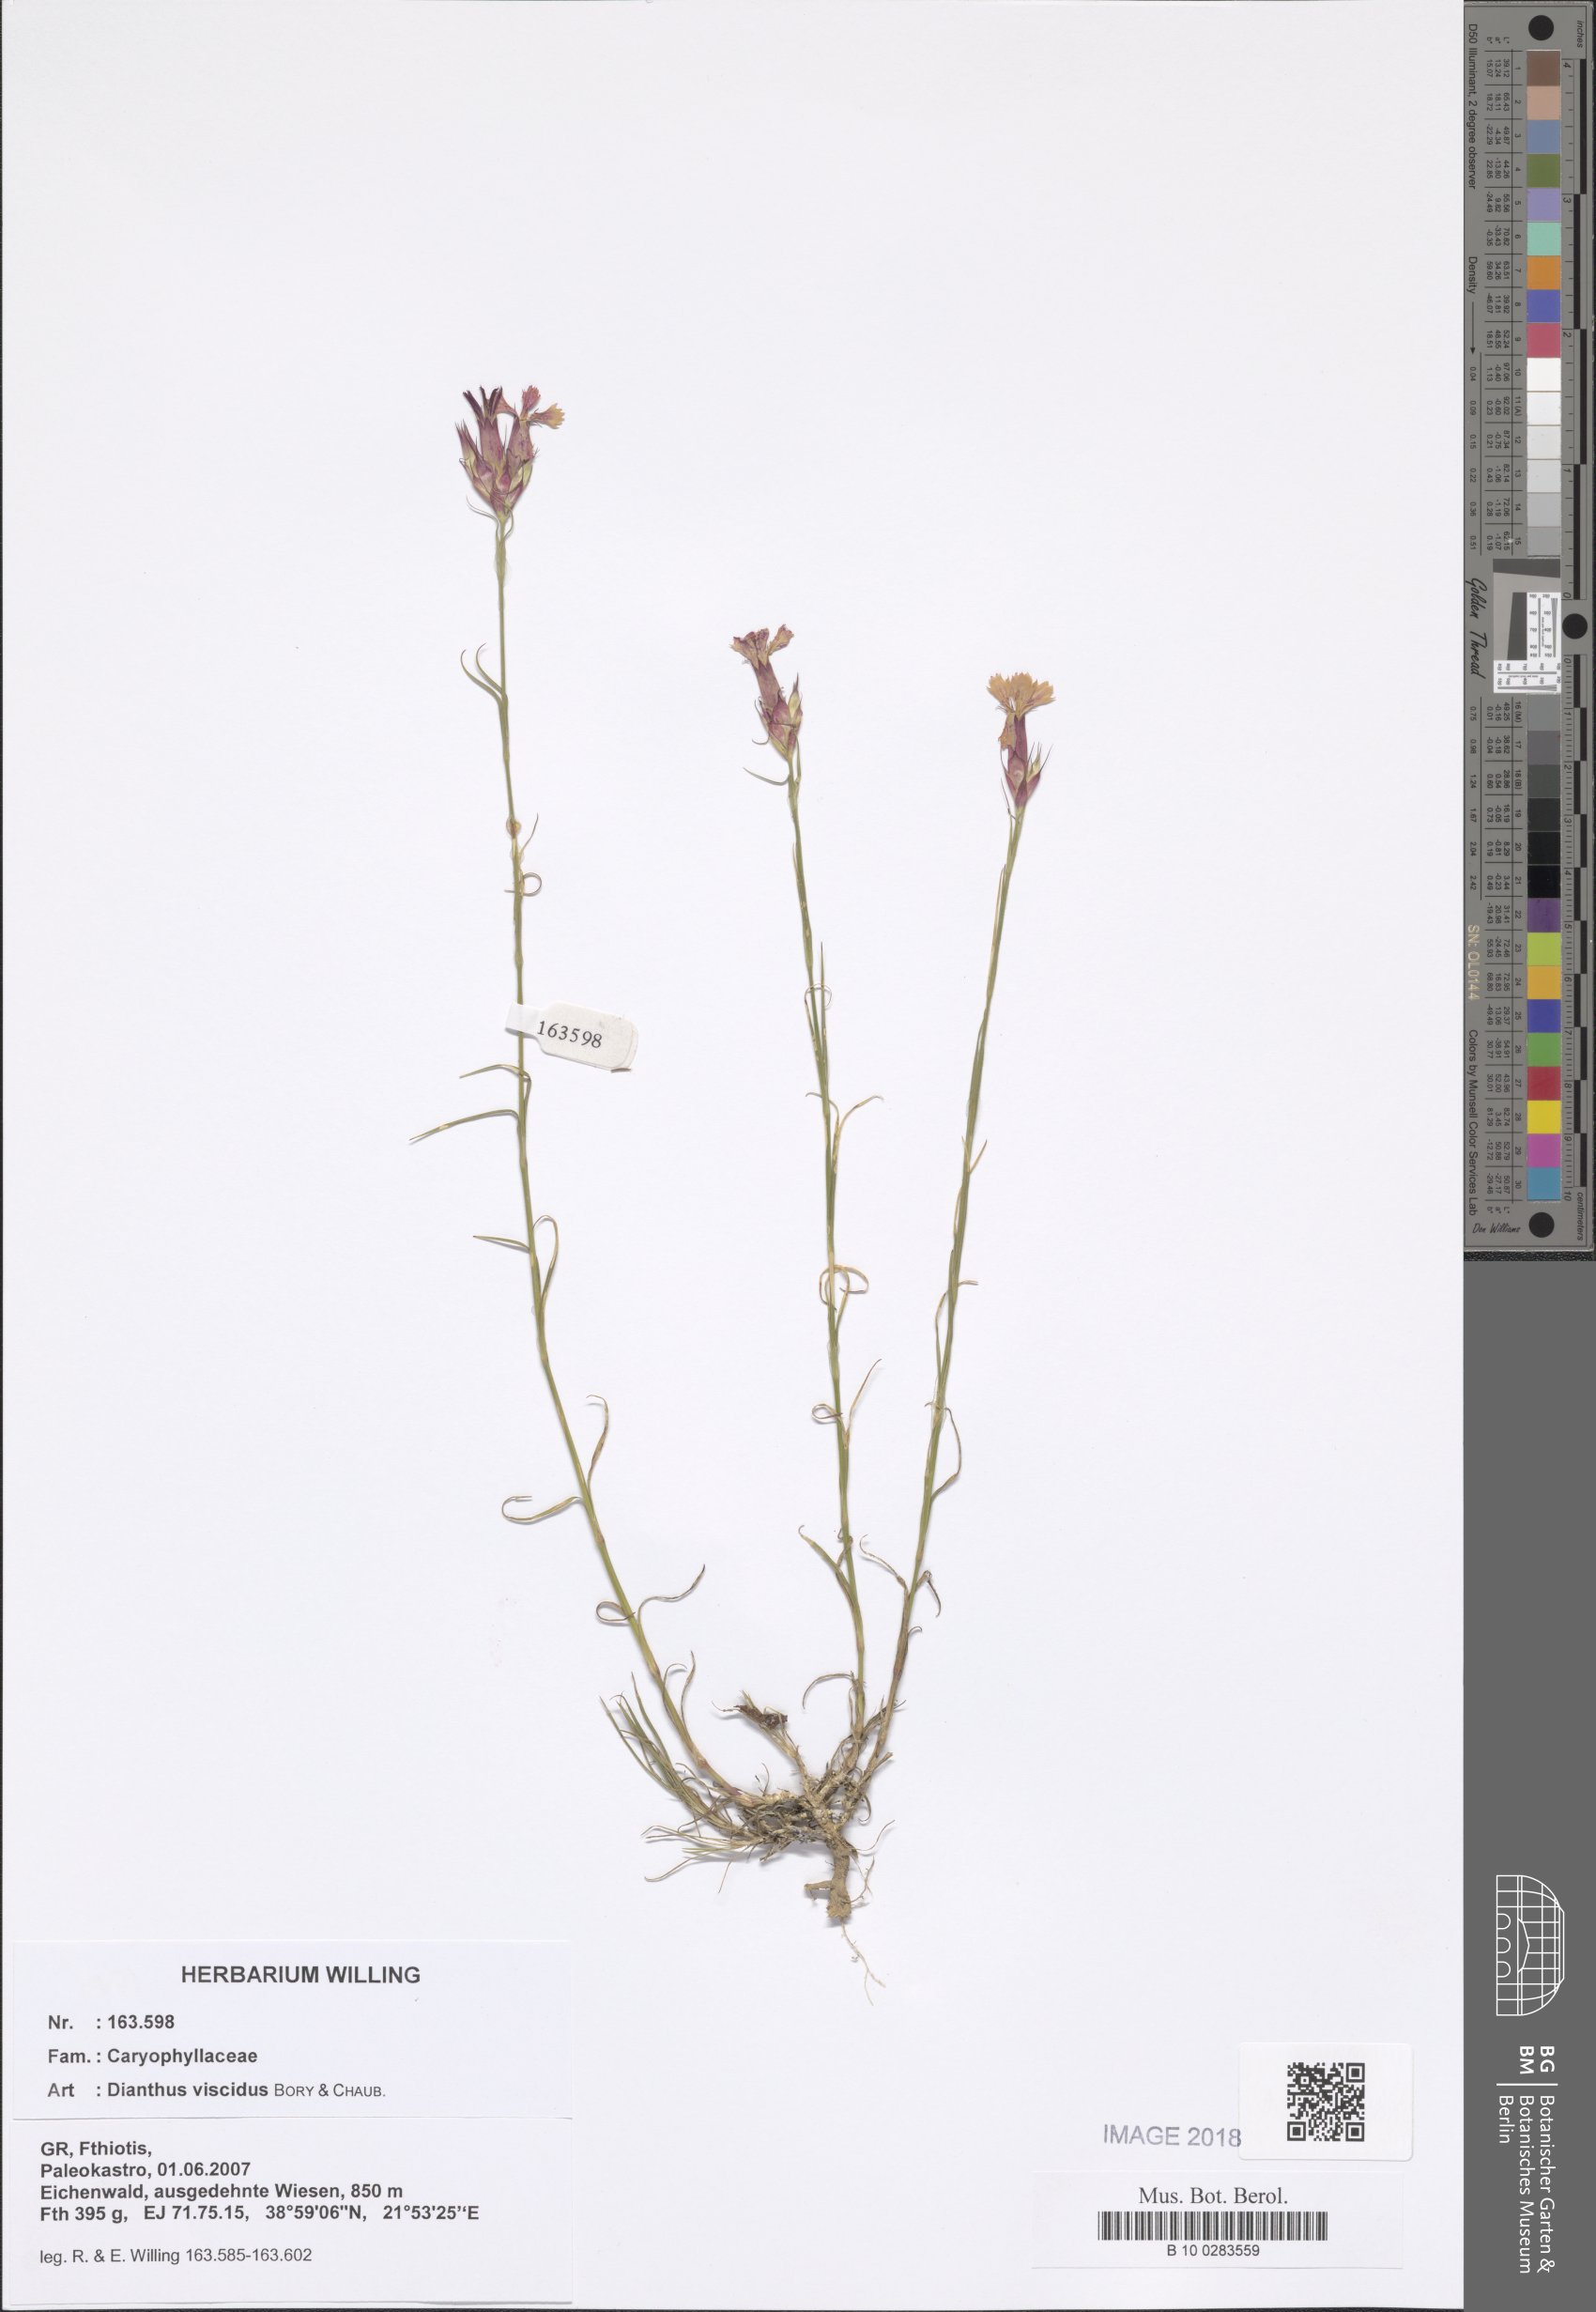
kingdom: Plantae
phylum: Tracheophyta
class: Magnoliopsida
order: Caryophyllales
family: Caryophyllaceae
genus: Dianthus
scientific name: Dianthus viscidus
